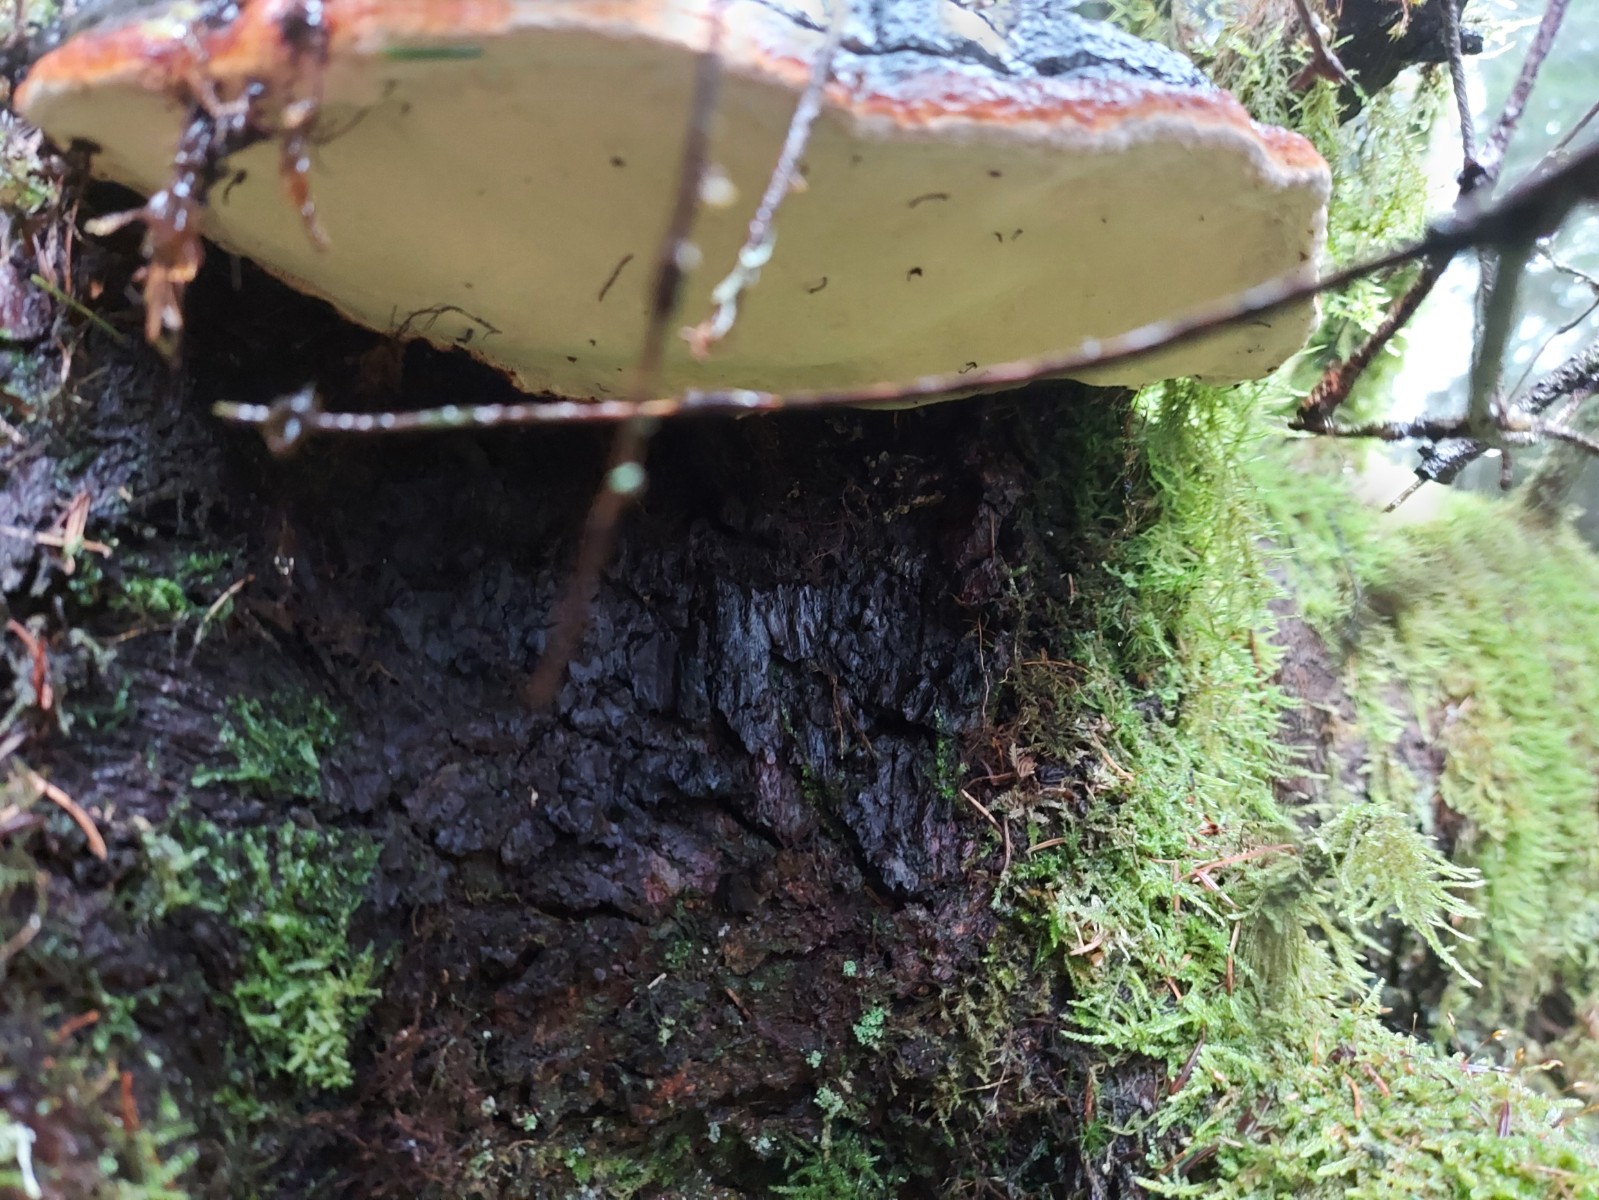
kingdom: Fungi
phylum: Basidiomycota
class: Agaricomycetes
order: Polyporales
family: Fomitopsidaceae
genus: Fomitopsis
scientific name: Fomitopsis pinicola
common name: randbæltet hovporesvamp
